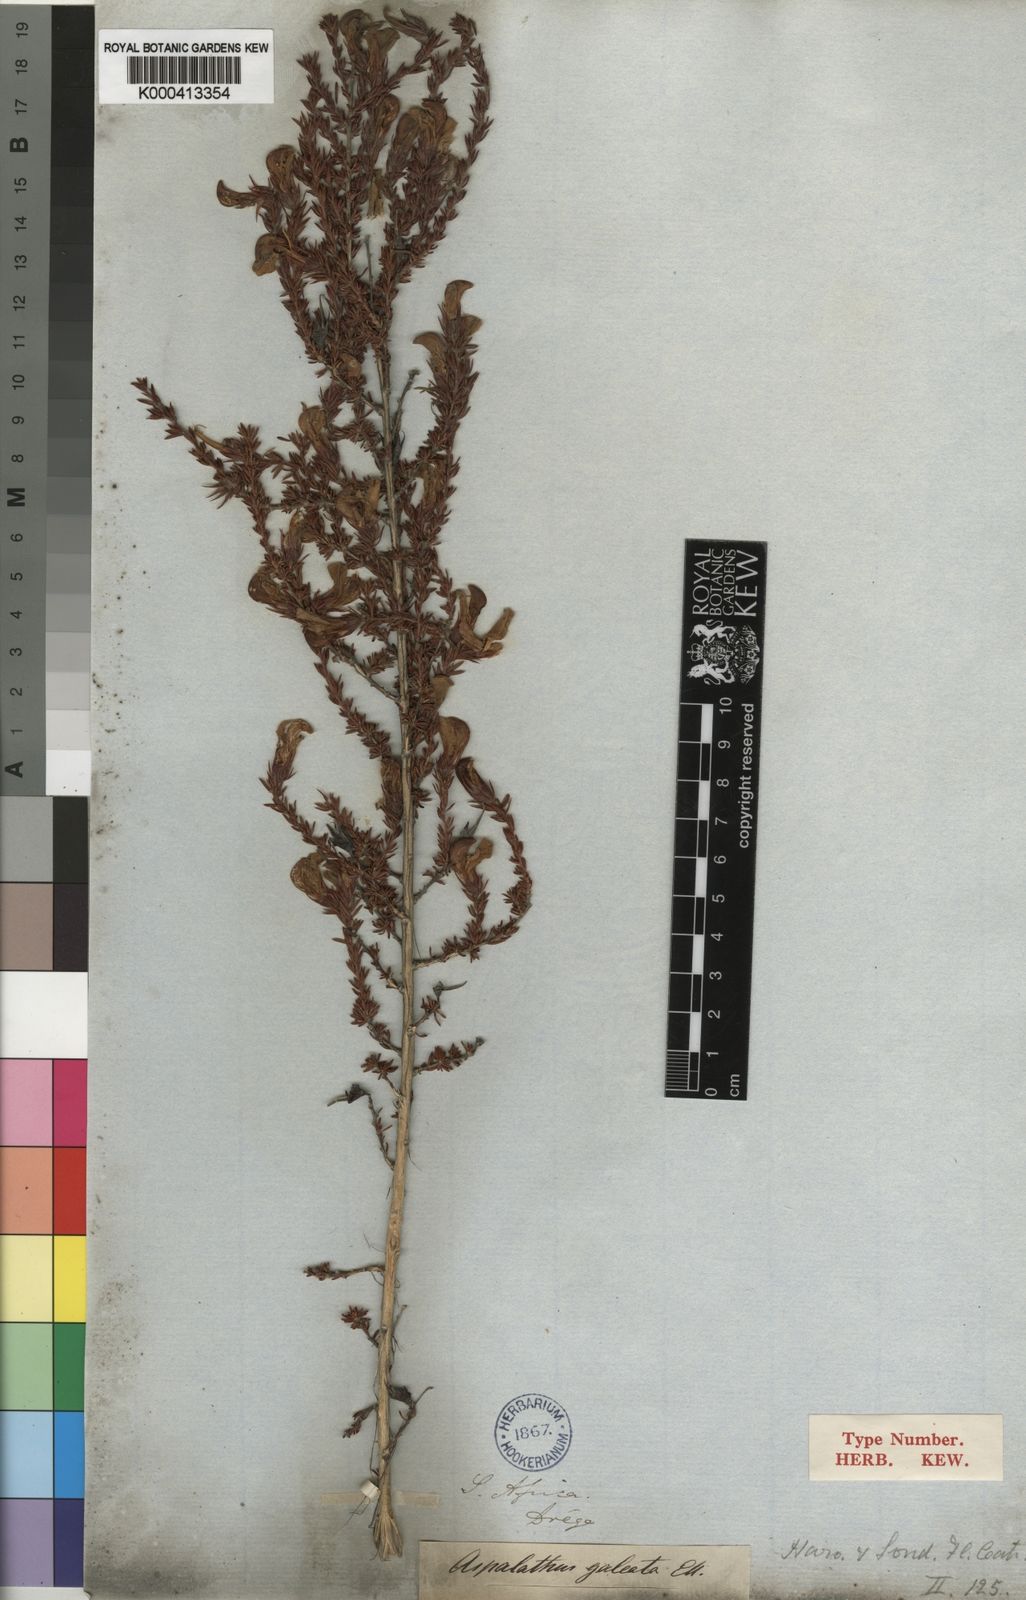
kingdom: Plantae
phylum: Tracheophyta
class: Magnoliopsida
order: Fabales
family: Fabaceae
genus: Aspalathus
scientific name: Aspalathus galeata
